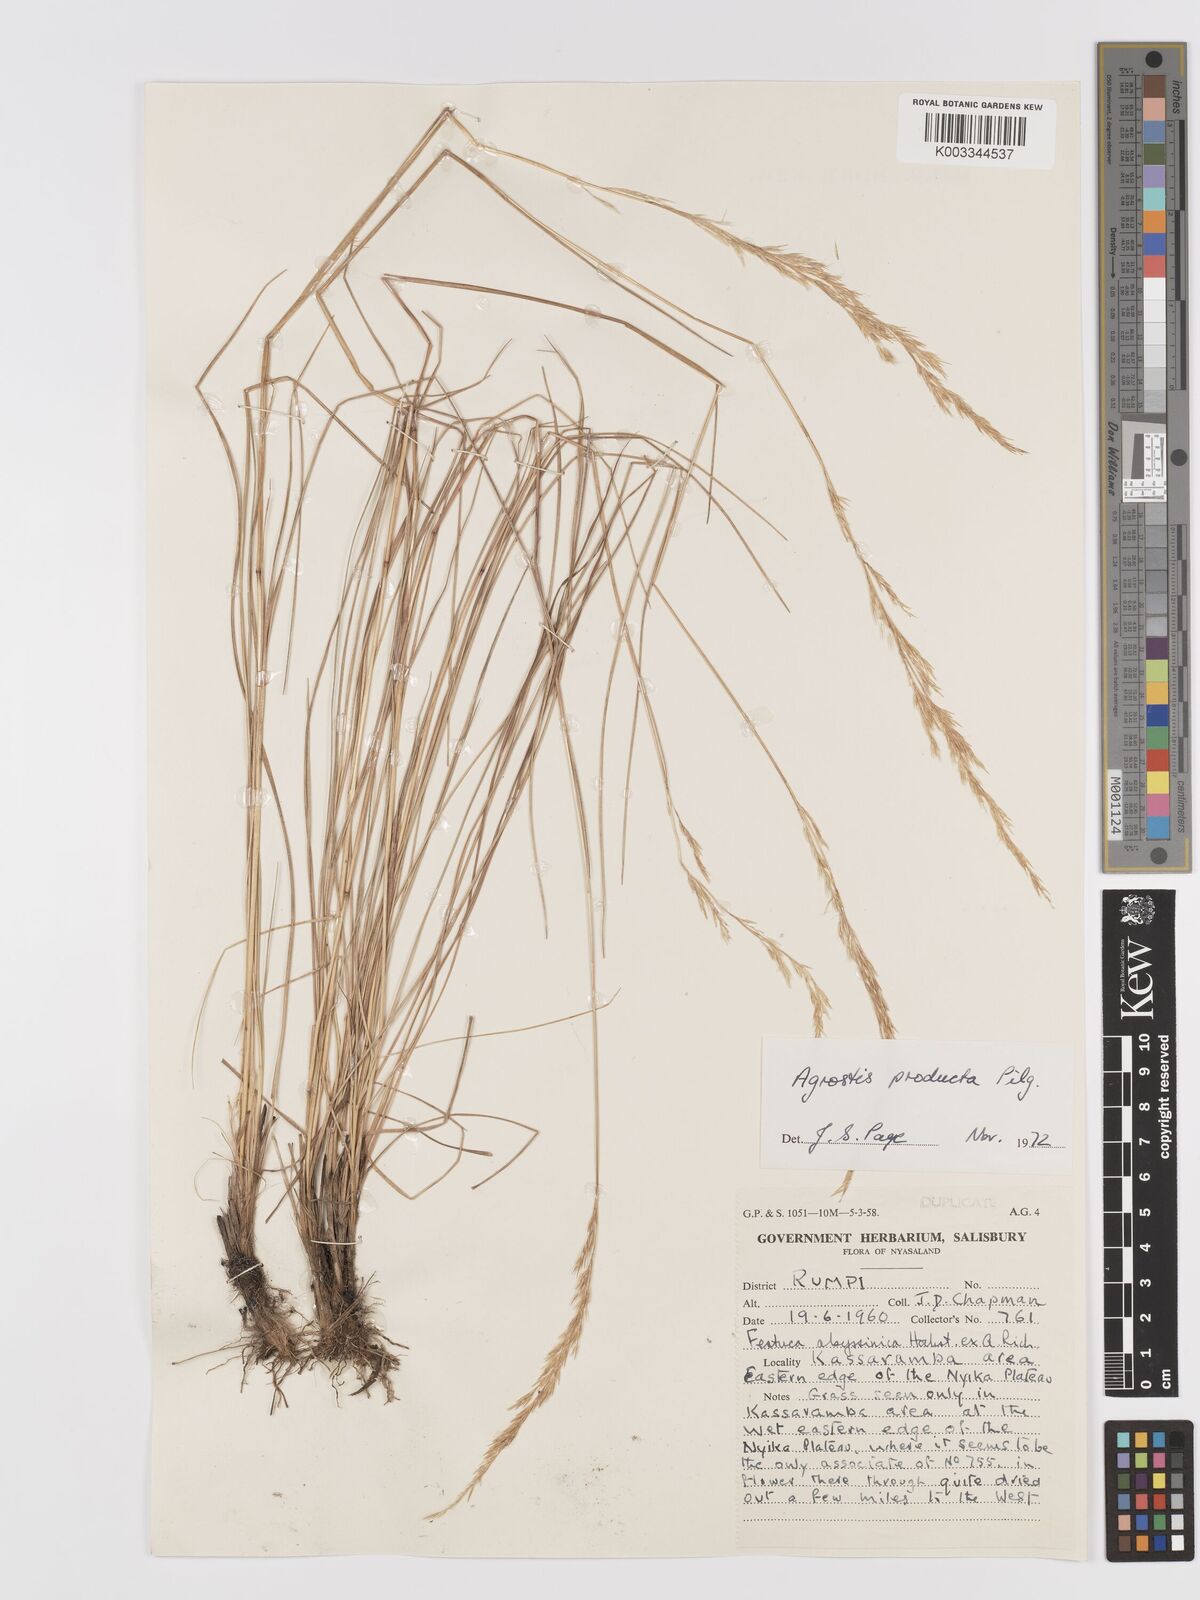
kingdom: Plantae
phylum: Tracheophyta
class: Liliopsida
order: Poales
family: Poaceae
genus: Agrostis
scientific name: Agrostis producta
